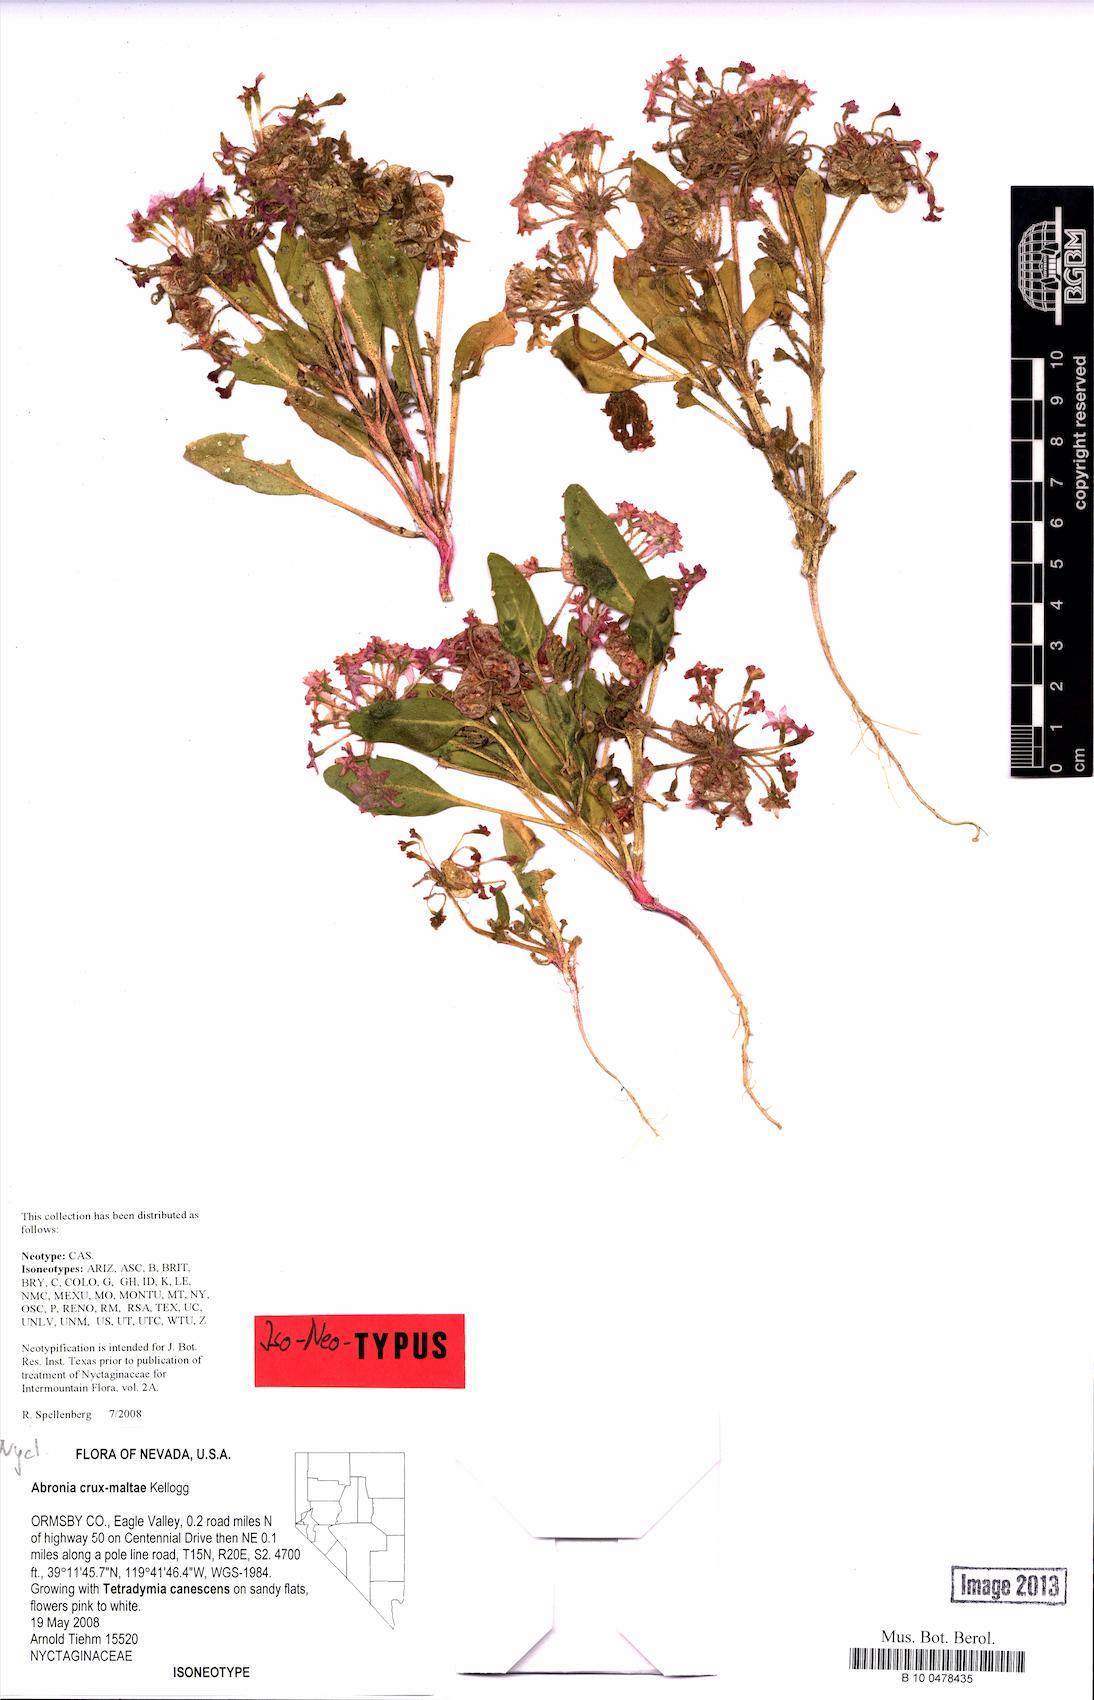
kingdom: Plantae
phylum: Tracheophyta
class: Magnoliopsida
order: Caryophyllales
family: Nyctaginaceae
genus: Tripterocalyx
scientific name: Tripterocalyx crux-maltae
